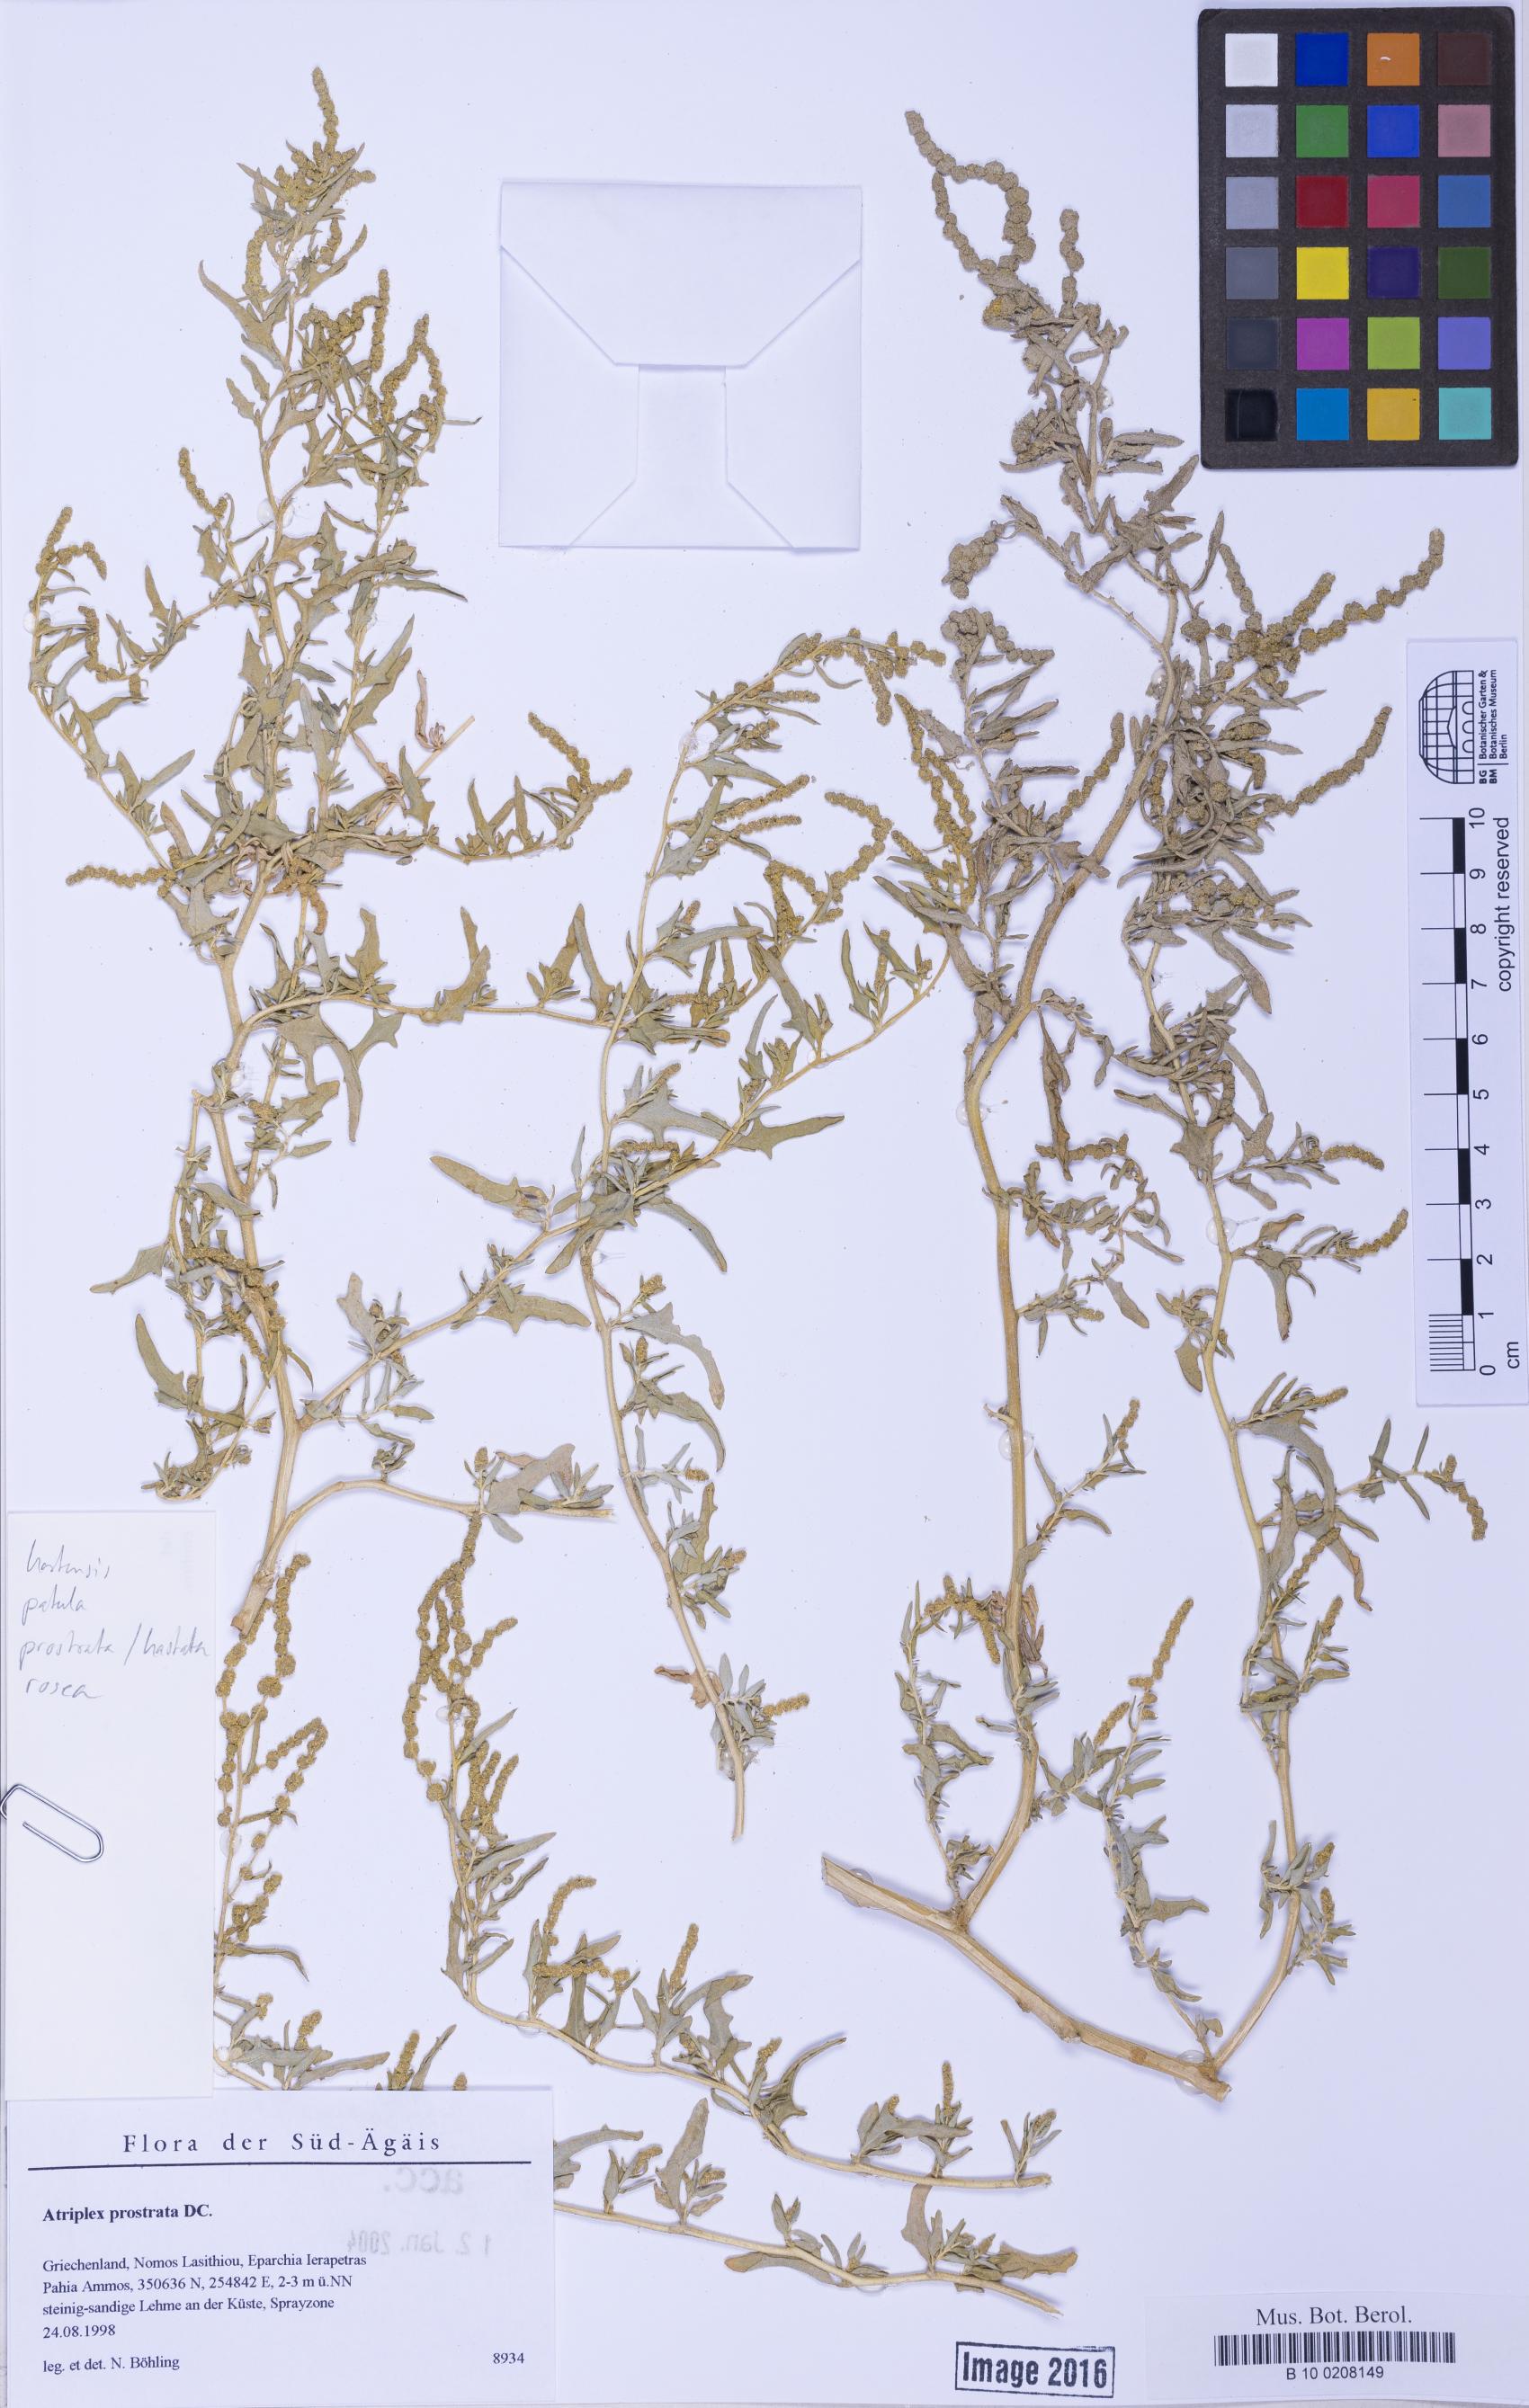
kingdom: Plantae
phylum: Tracheophyta
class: Magnoliopsida
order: Caryophyllales
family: Amaranthaceae
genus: Atriplex
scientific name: Atriplex tatarica
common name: Tatarian orache
